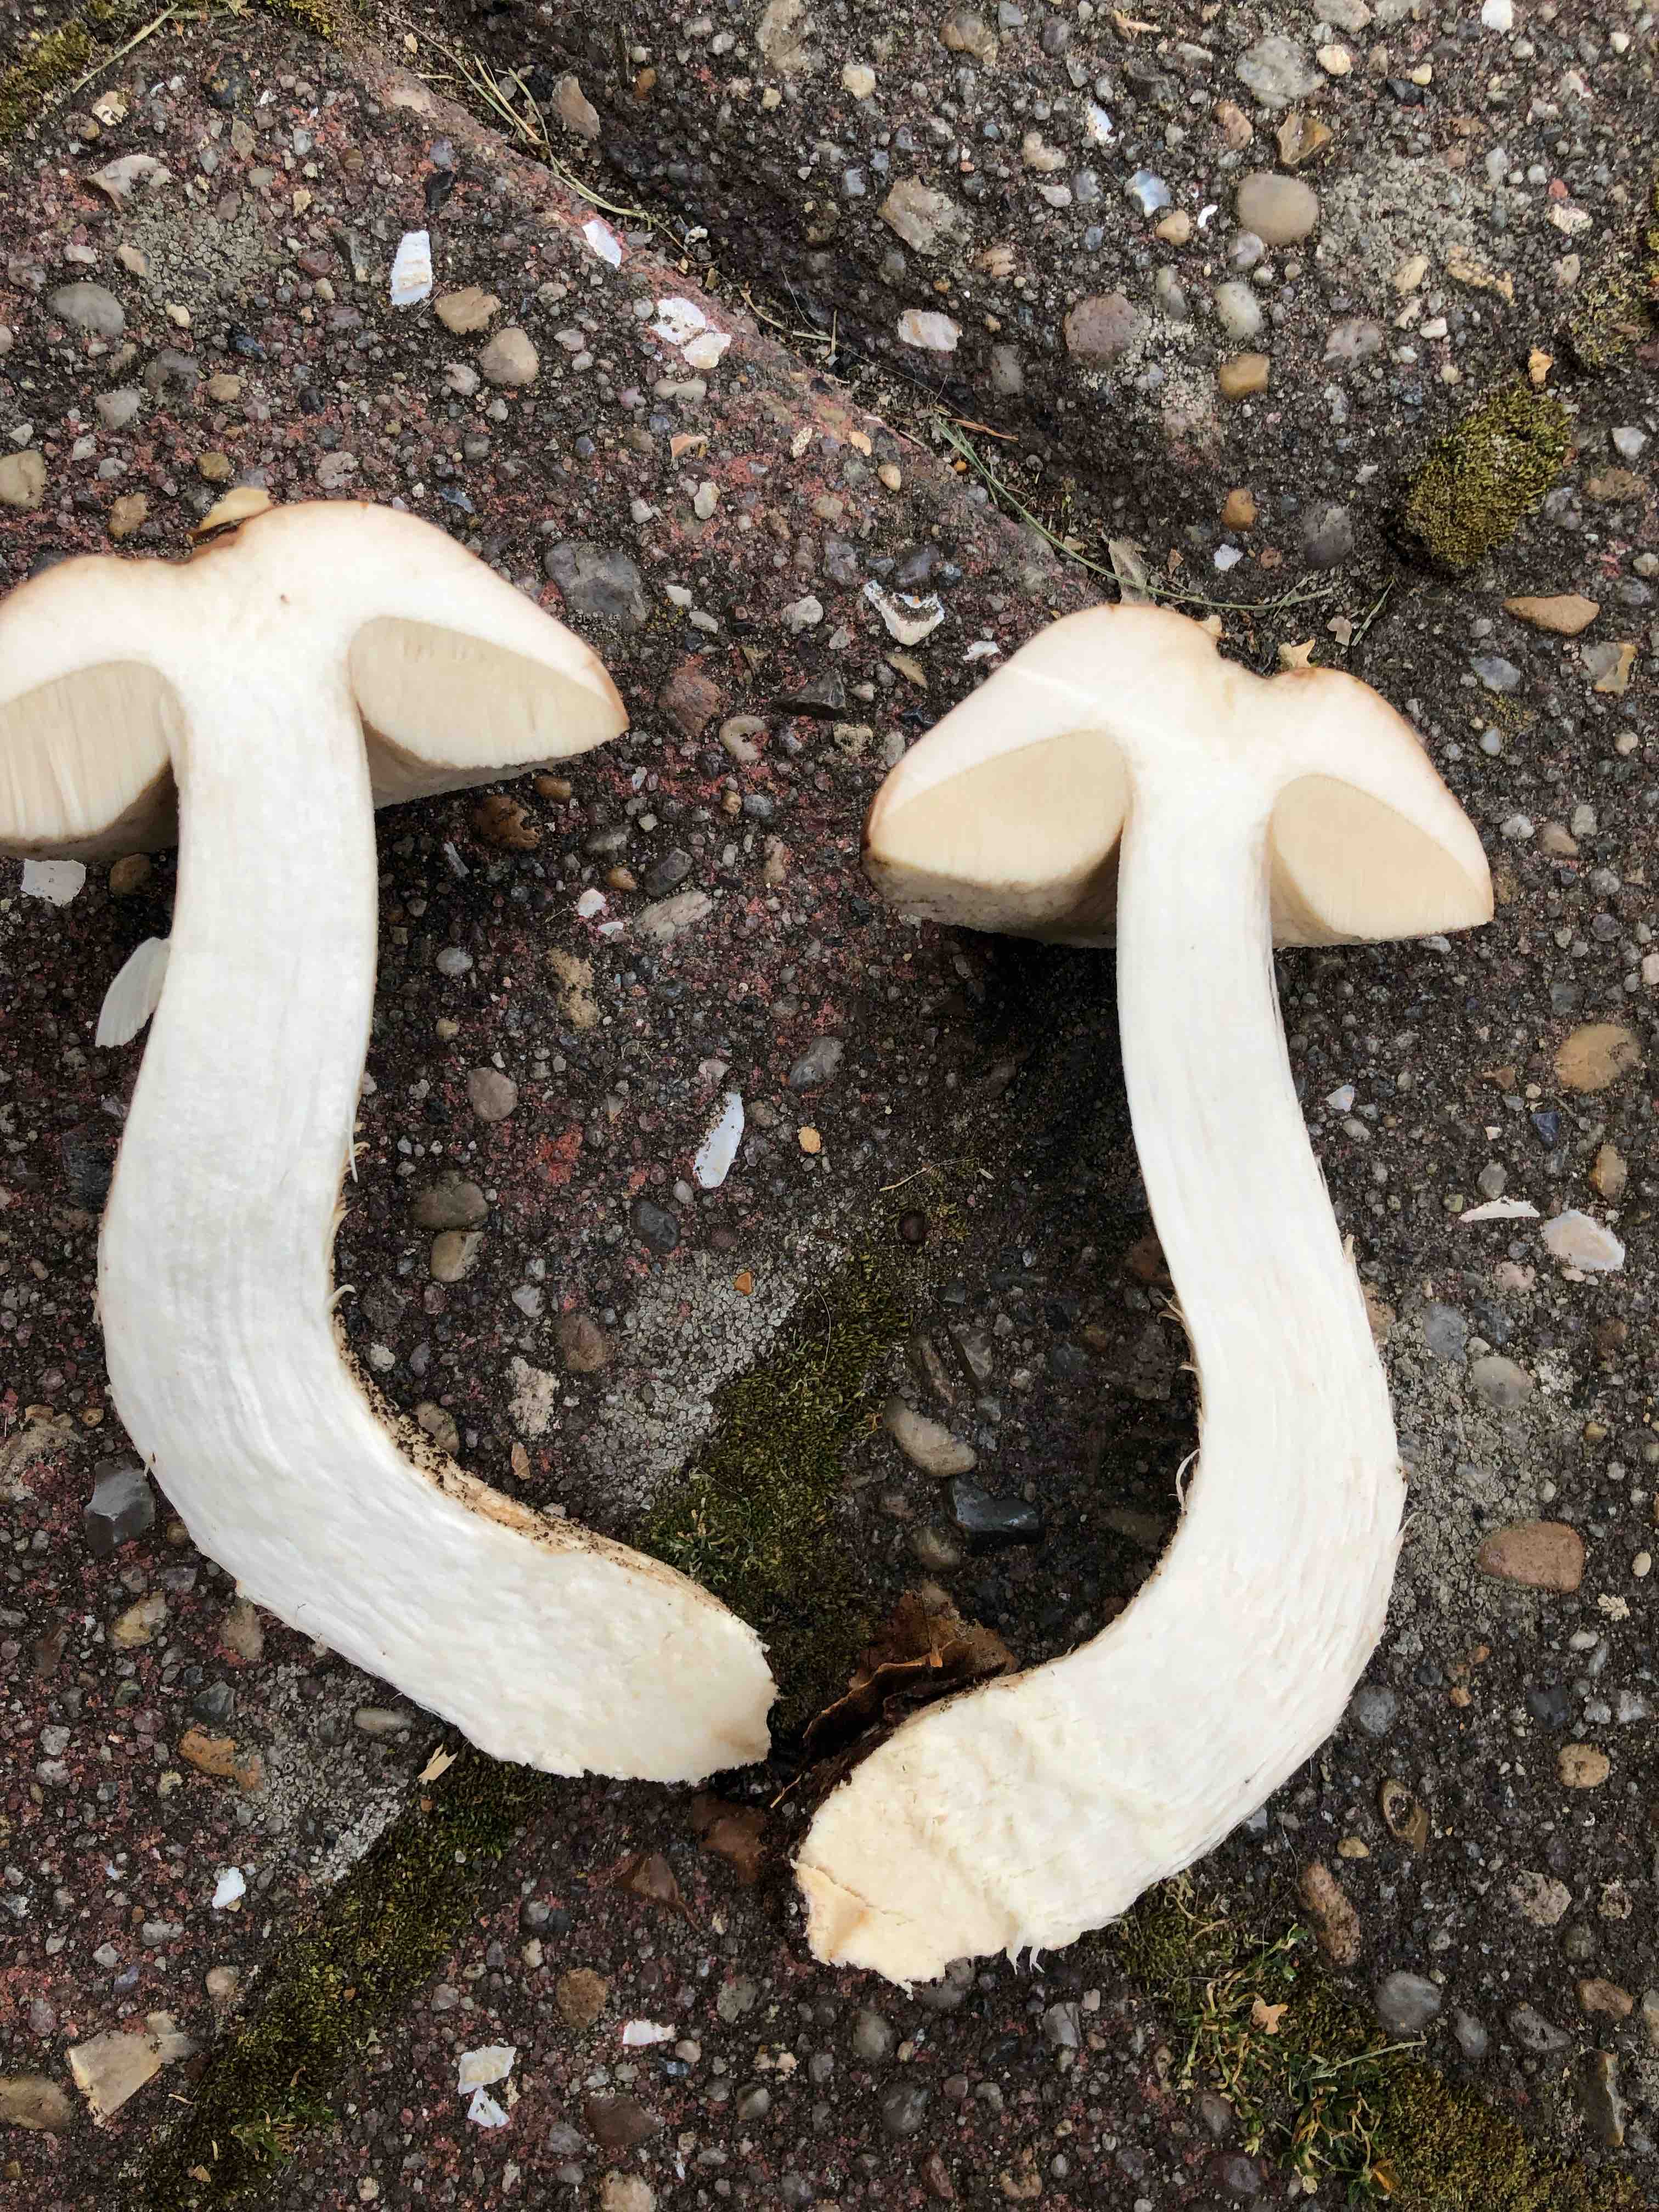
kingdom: Fungi
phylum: Basidiomycota
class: Agaricomycetes
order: Boletales
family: Boletaceae
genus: Leccinum
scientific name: Leccinum scabrum
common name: brun skælrørhat
